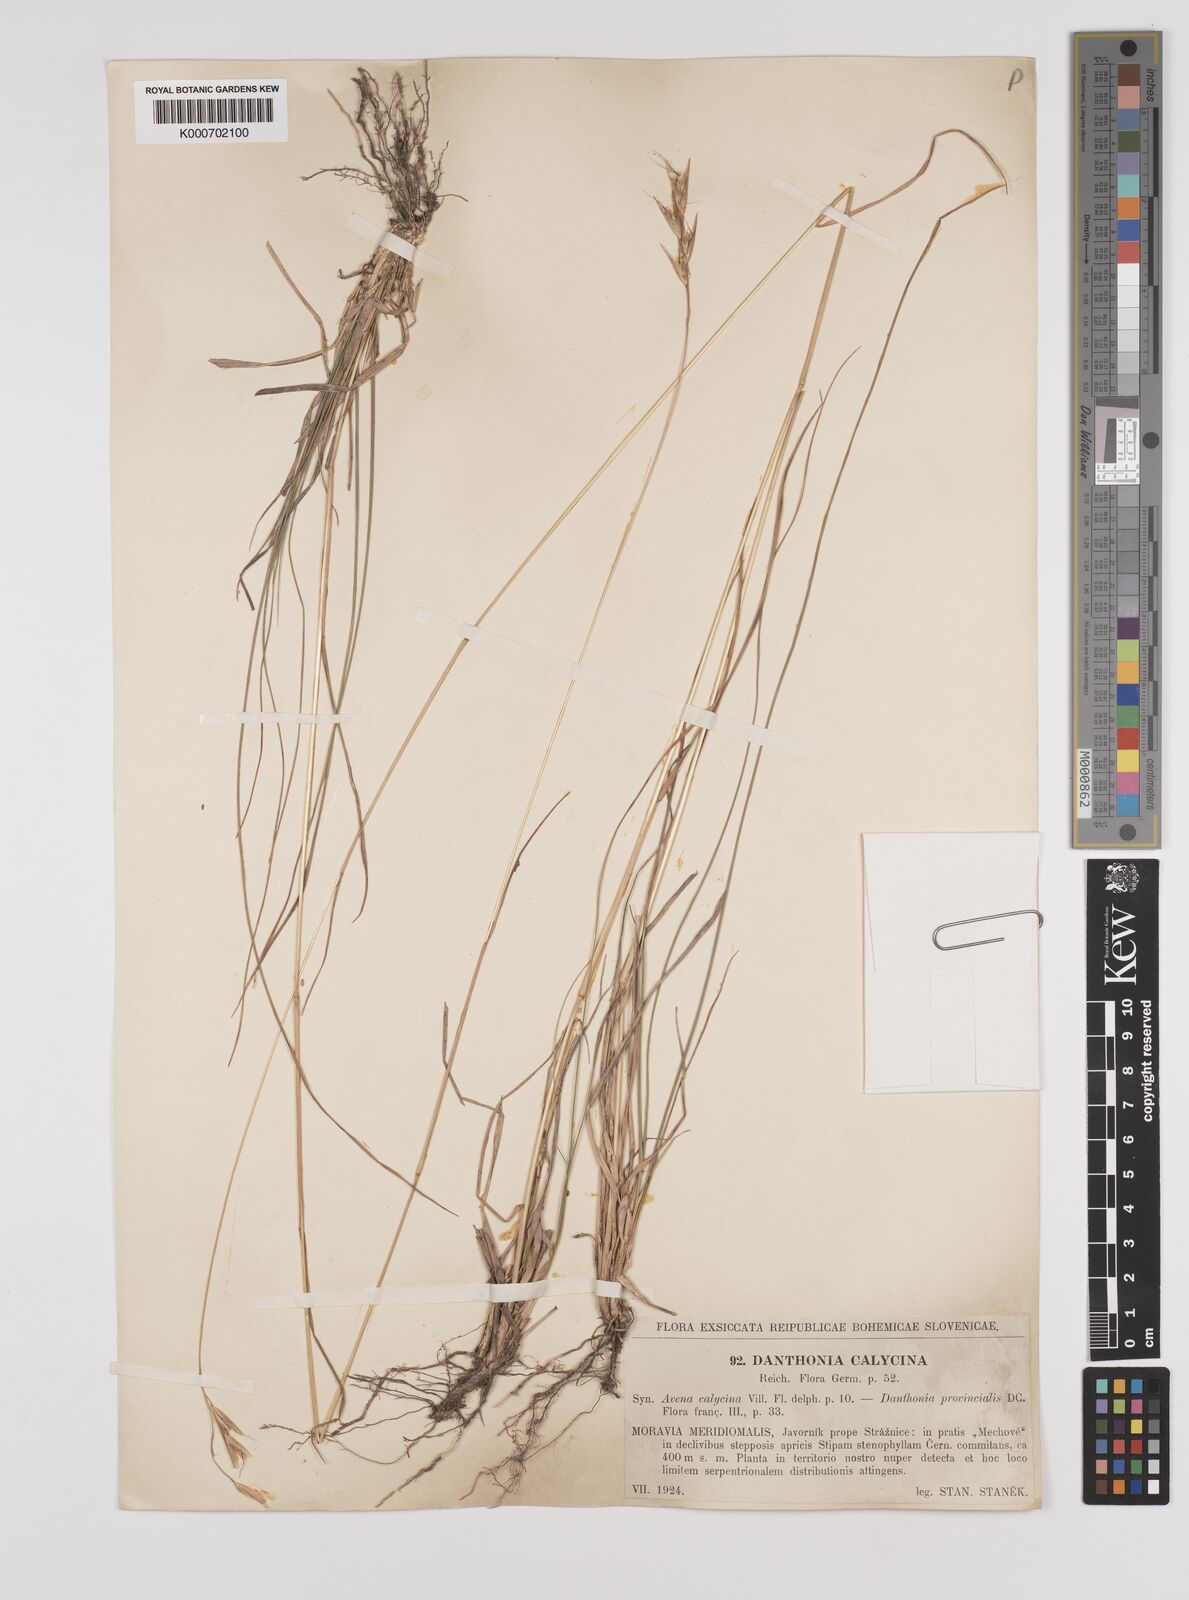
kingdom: Plantae
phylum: Tracheophyta
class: Liliopsida
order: Poales
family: Poaceae
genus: Danthonia
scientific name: Danthonia alpina
